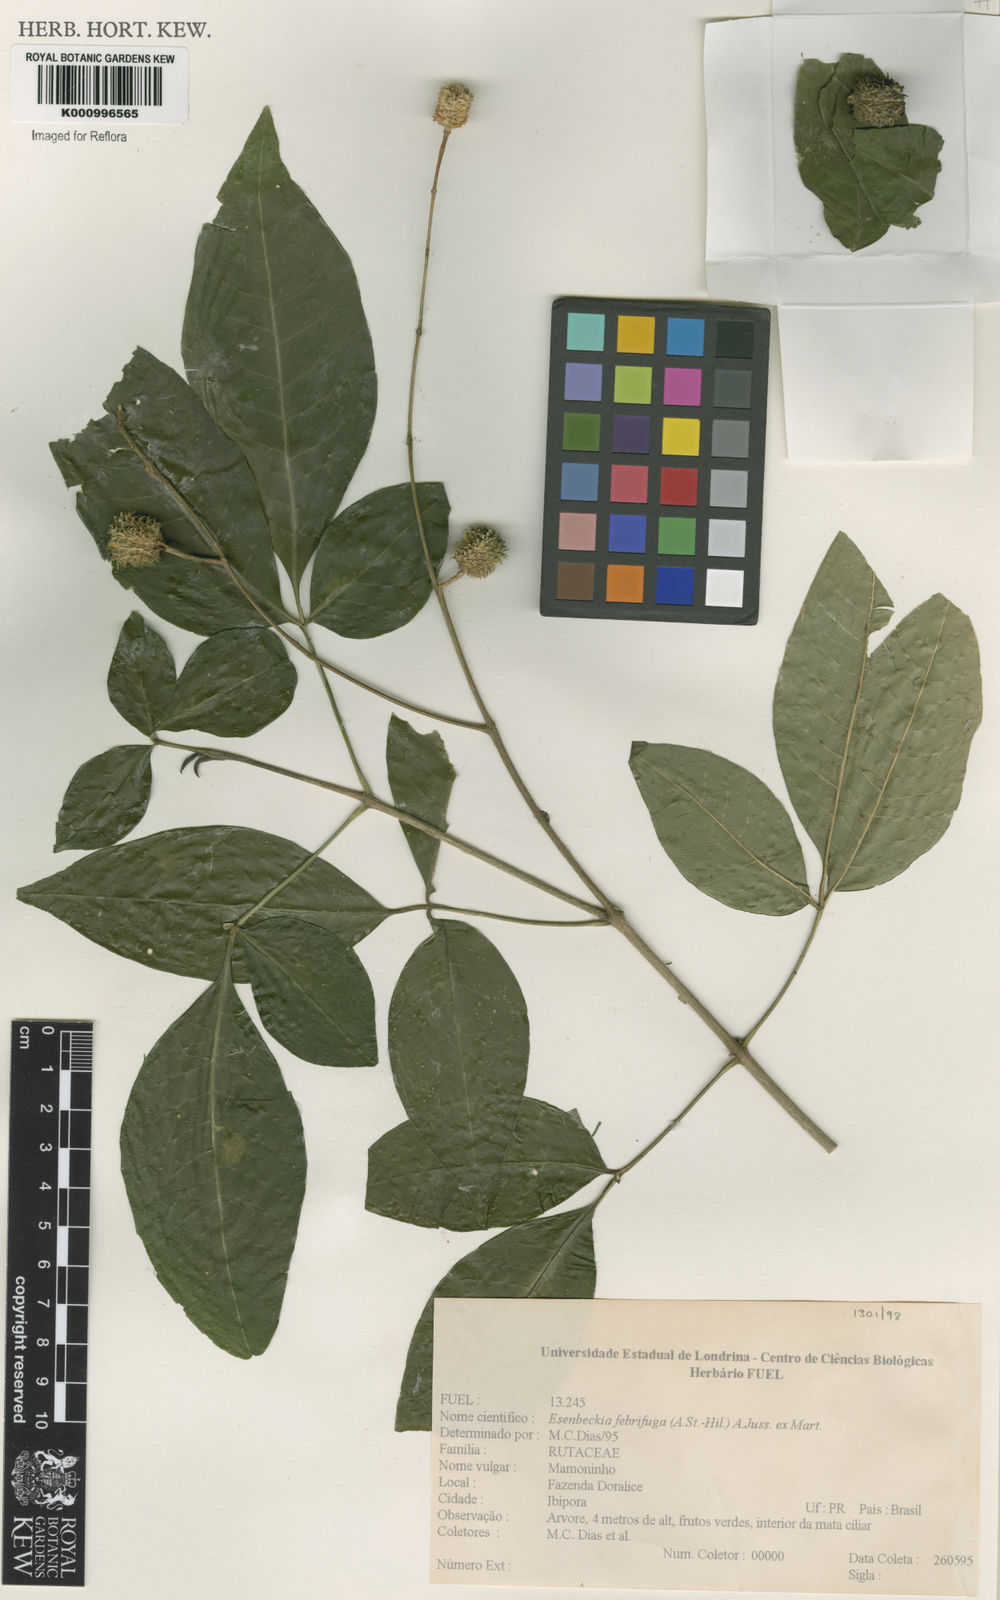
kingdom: Plantae
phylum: Tracheophyta
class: Magnoliopsida
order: Sapindales
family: Rutaceae
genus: Esenbeckia
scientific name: Esenbeckia febrifuga
